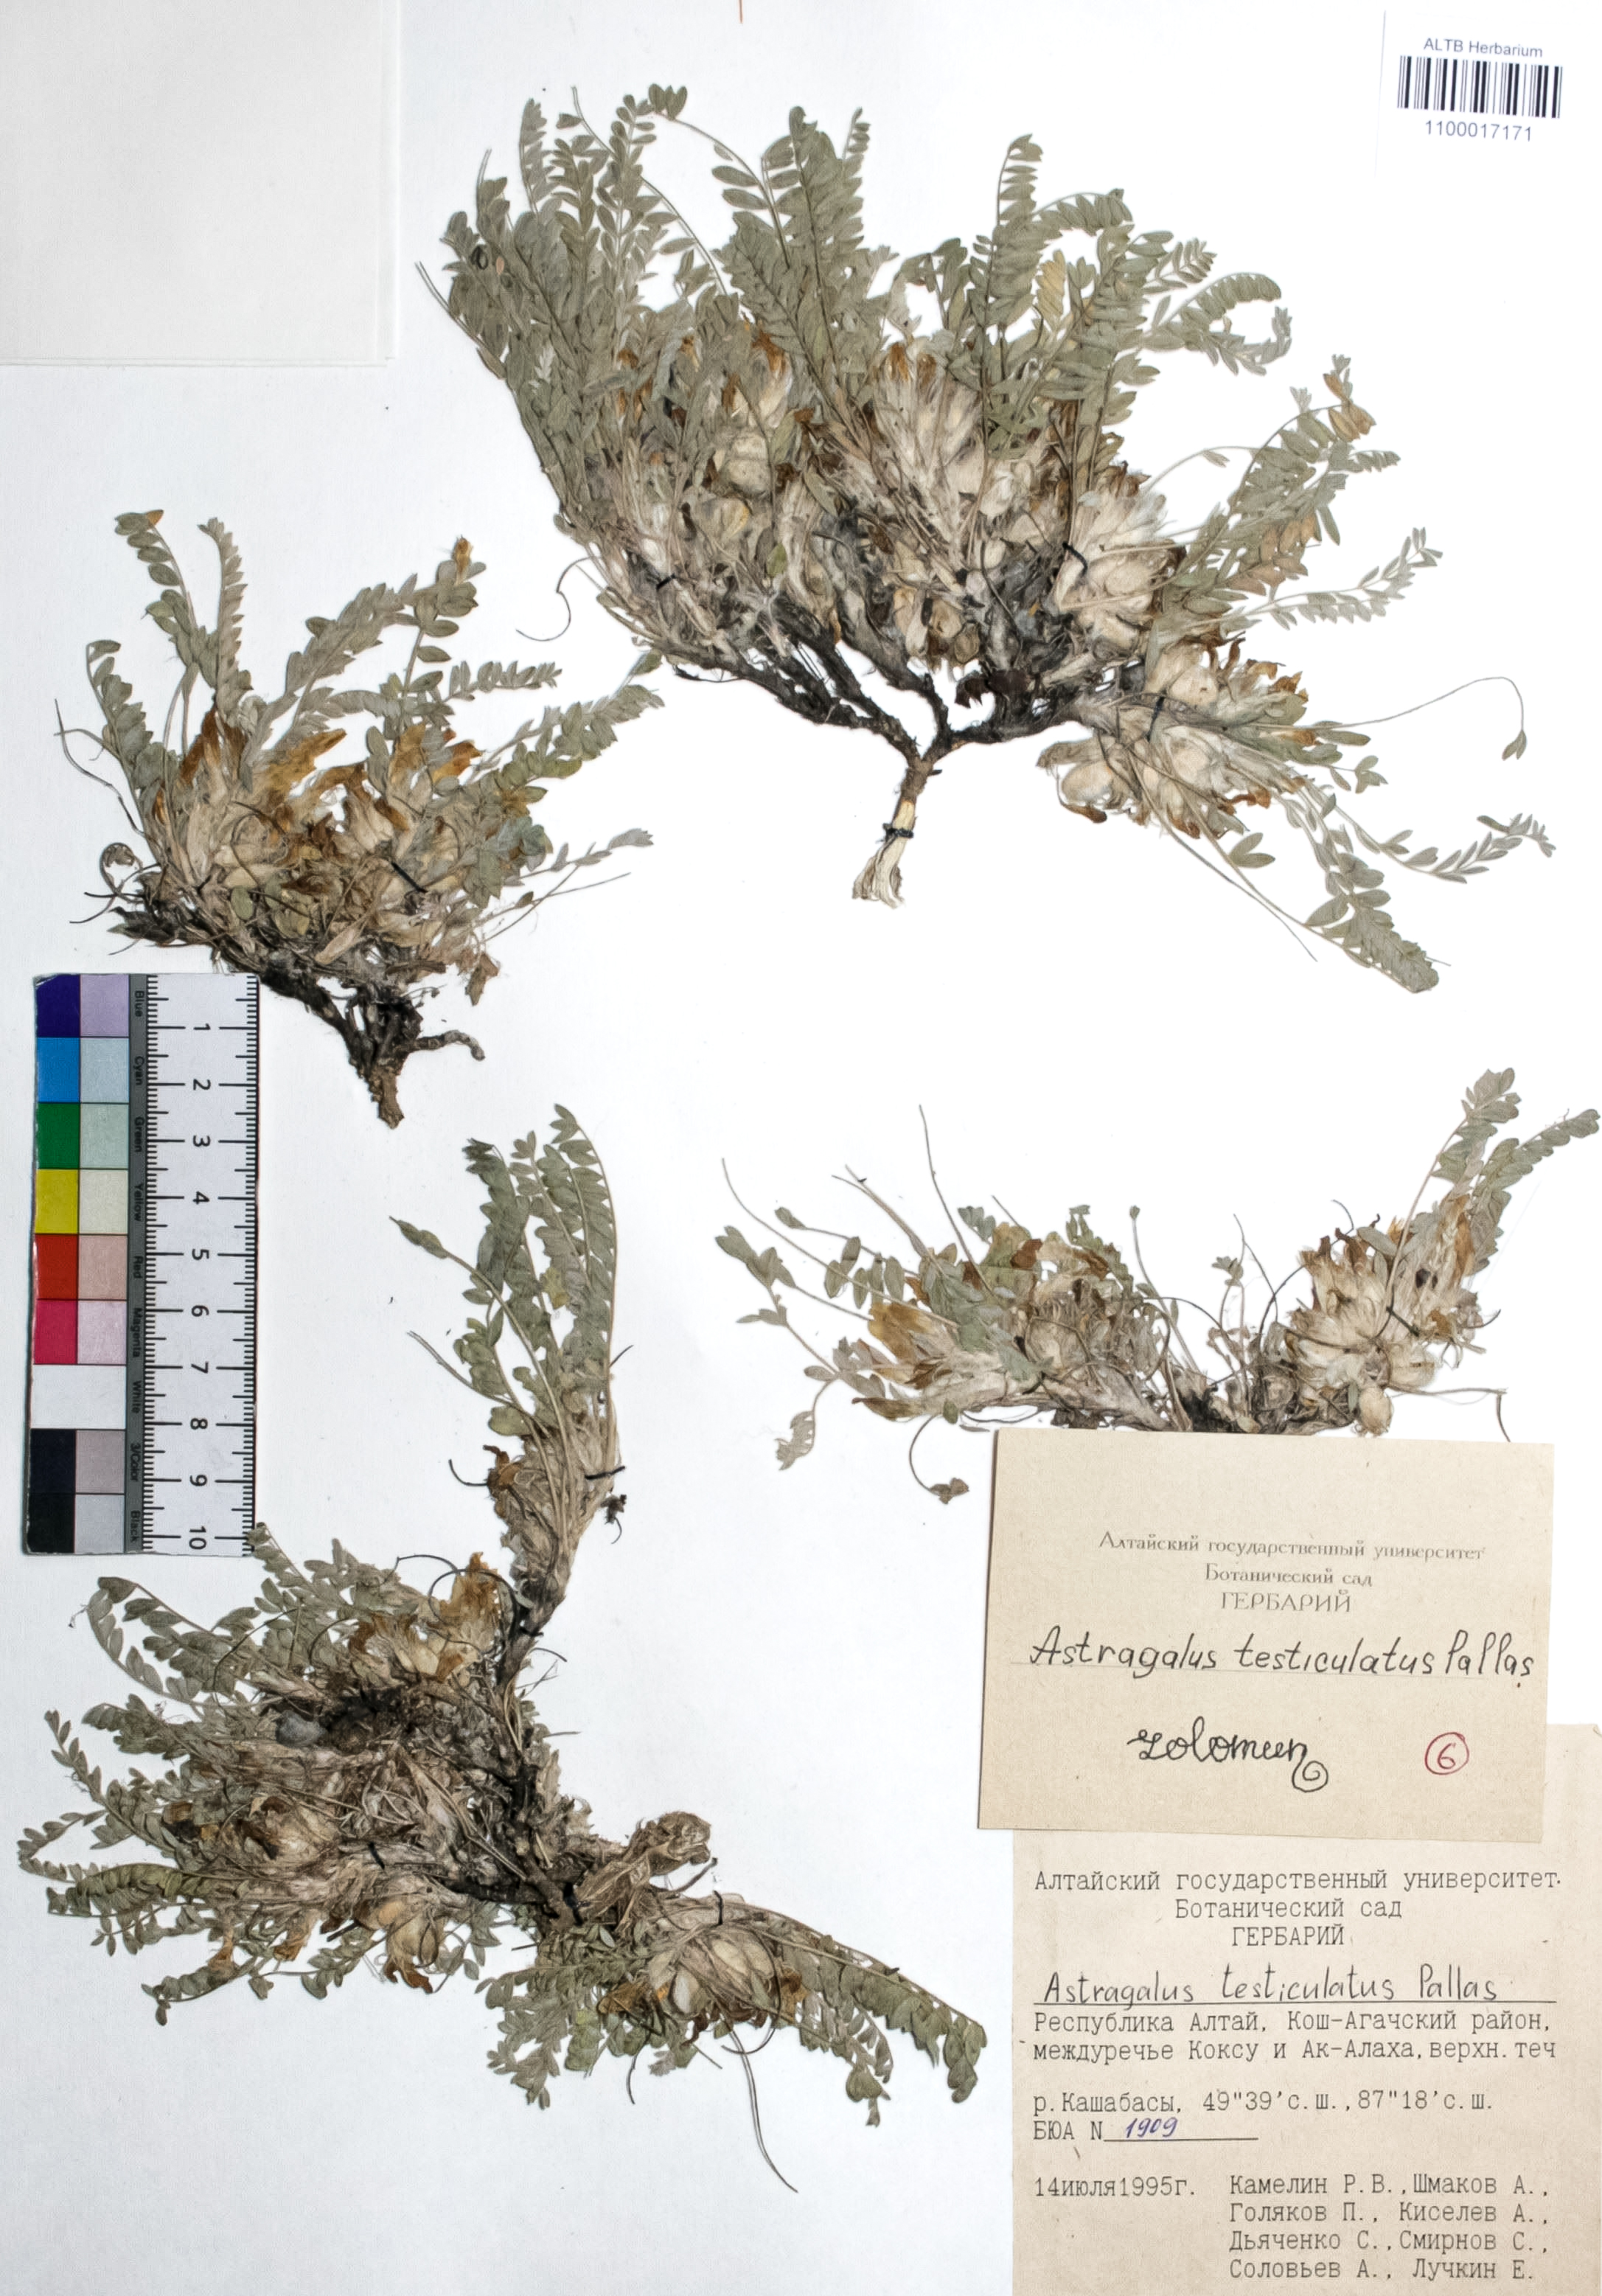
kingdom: Plantae
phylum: Tracheophyta
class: Magnoliopsida
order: Fabales
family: Fabaceae
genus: Astragalus
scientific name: Astragalus testiculatus
